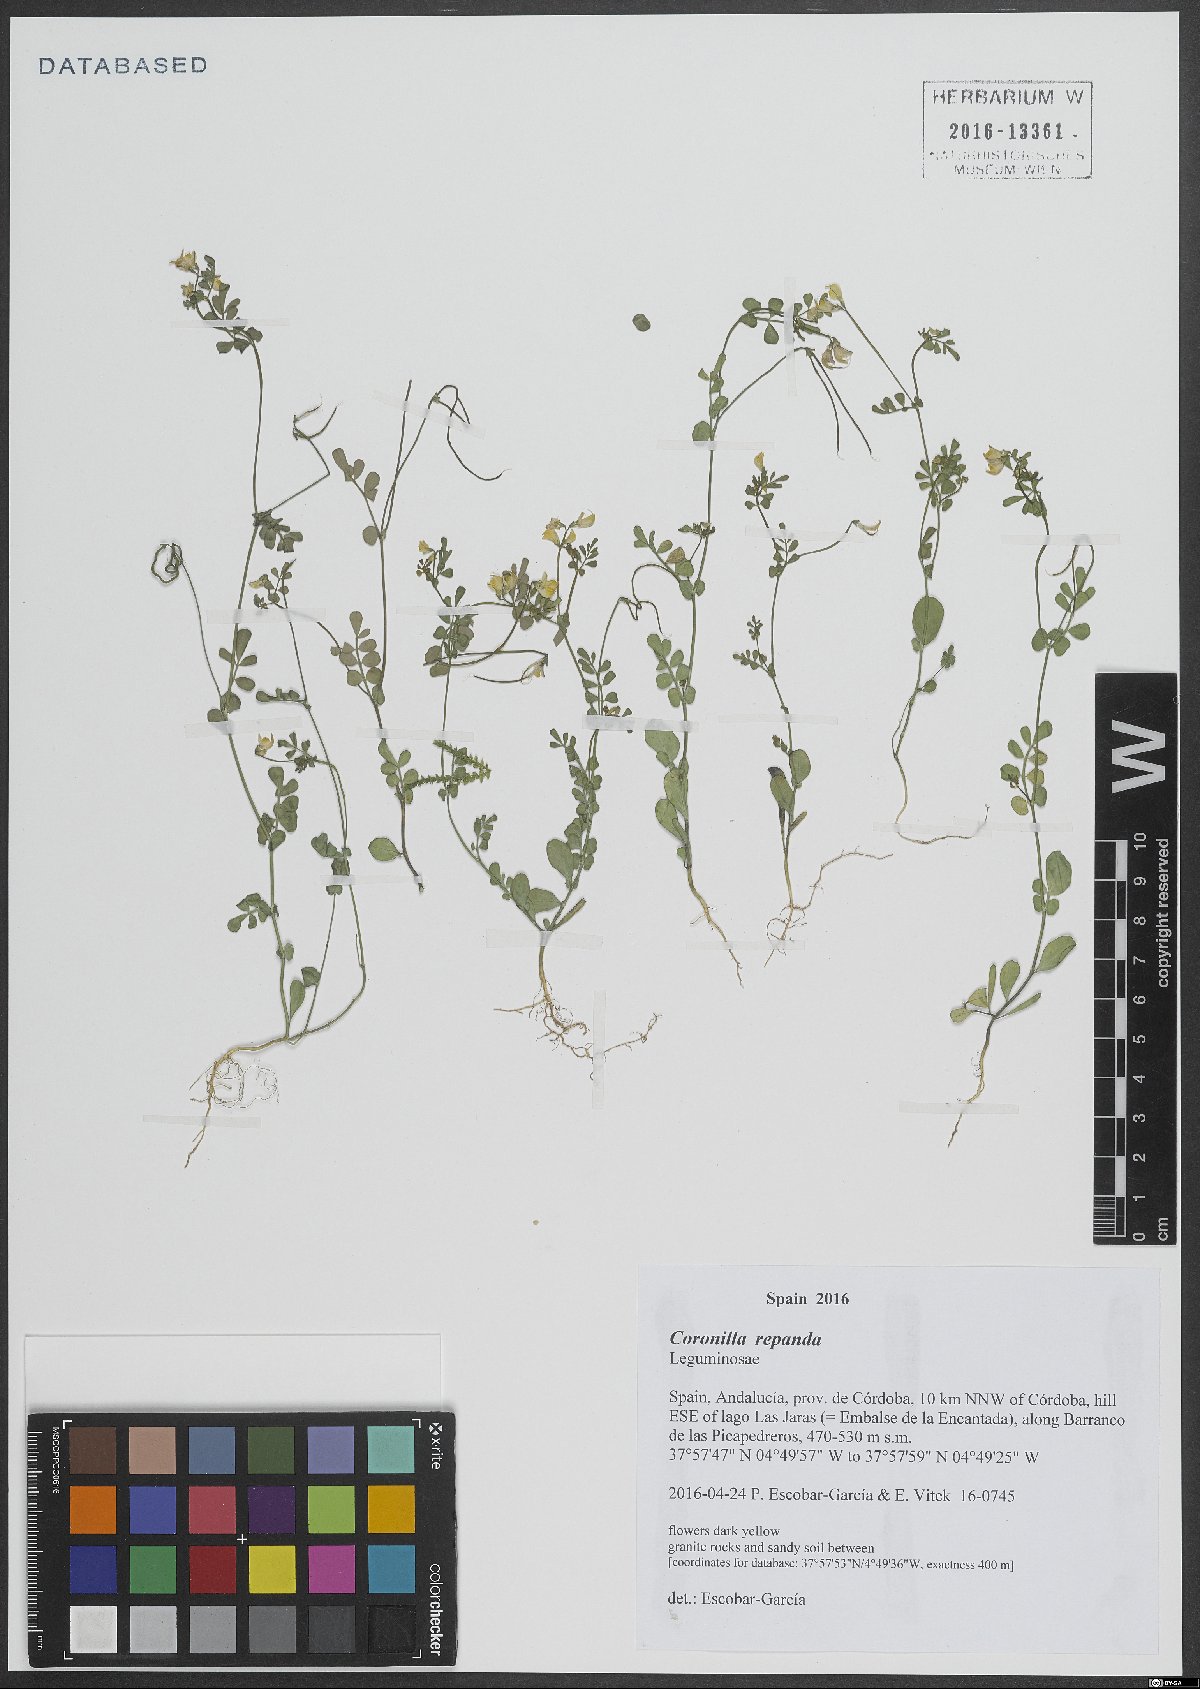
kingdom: Plantae
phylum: Tracheophyta
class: Magnoliopsida
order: Fabales
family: Fabaceae
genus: Coronilla
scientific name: Coronilla repanda
